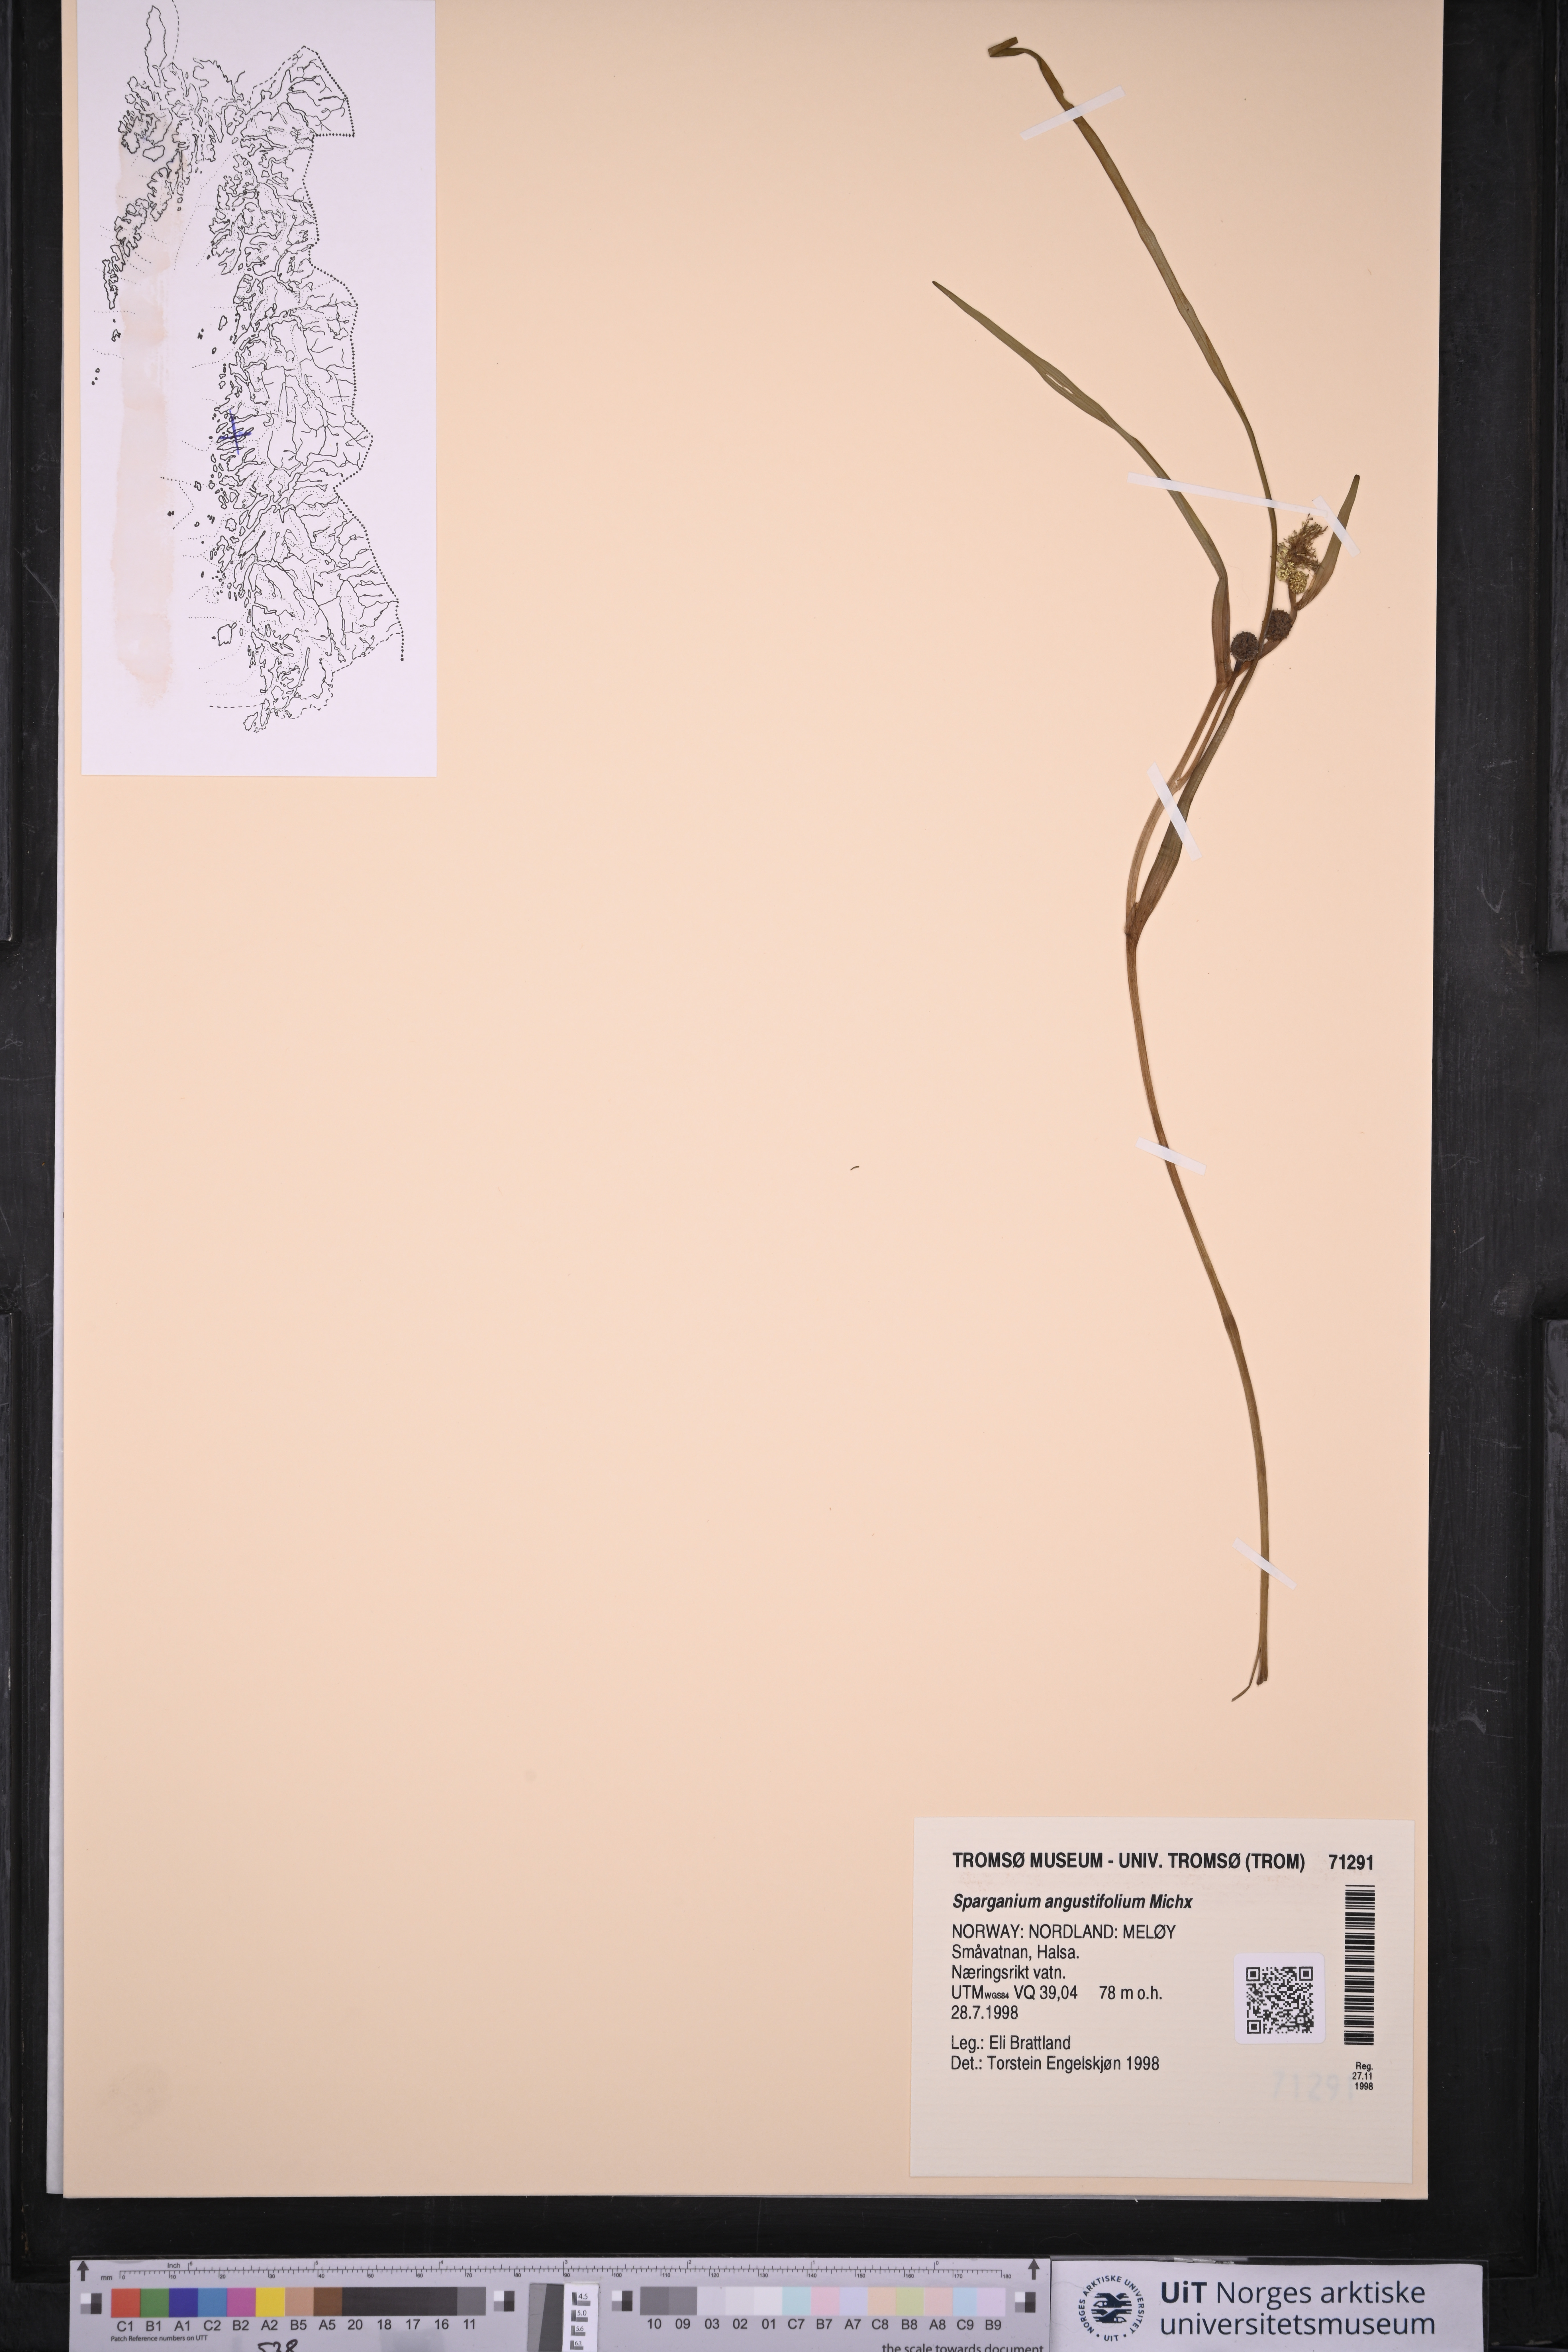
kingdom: Plantae
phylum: Tracheophyta
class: Liliopsida
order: Poales
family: Typhaceae
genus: Sparganium
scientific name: Sparganium angustifolium
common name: Floating bur-reed
